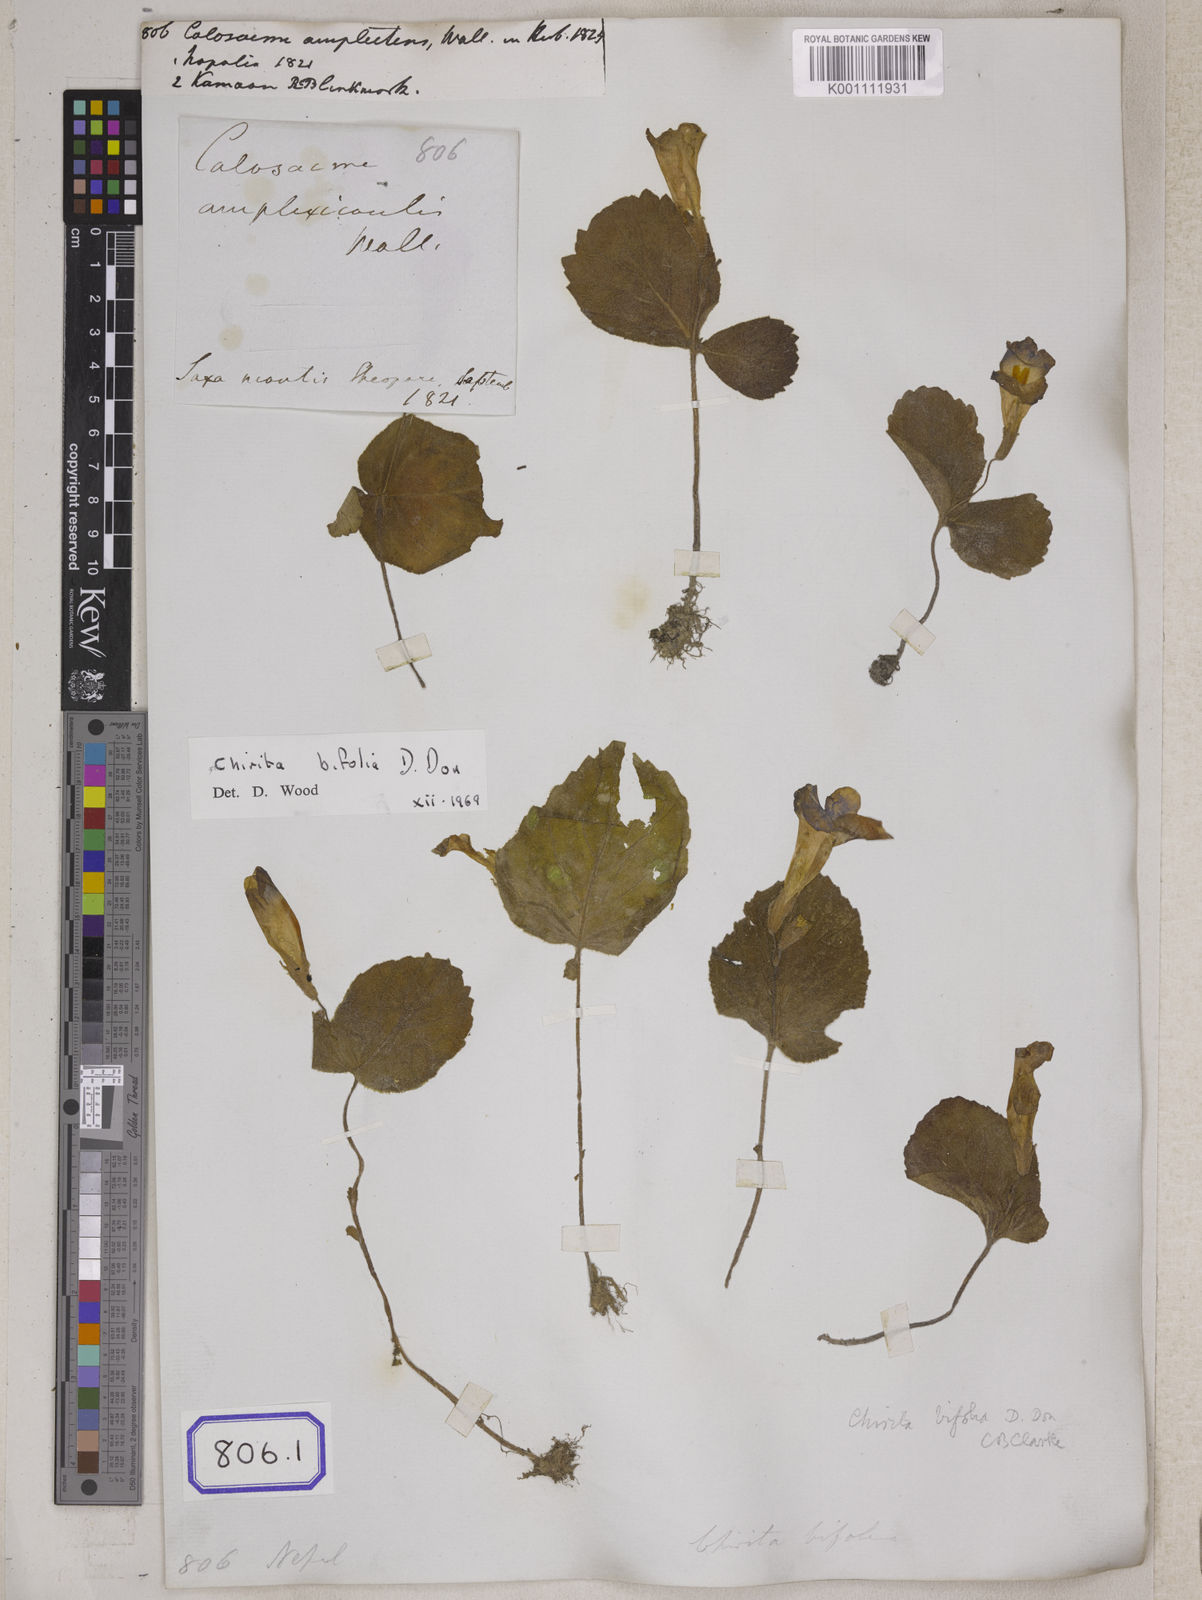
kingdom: Plantae
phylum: Tracheophyta
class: Magnoliopsida
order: Lamiales
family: Gesneriaceae
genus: Henckelia
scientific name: Henckelia bifolia
